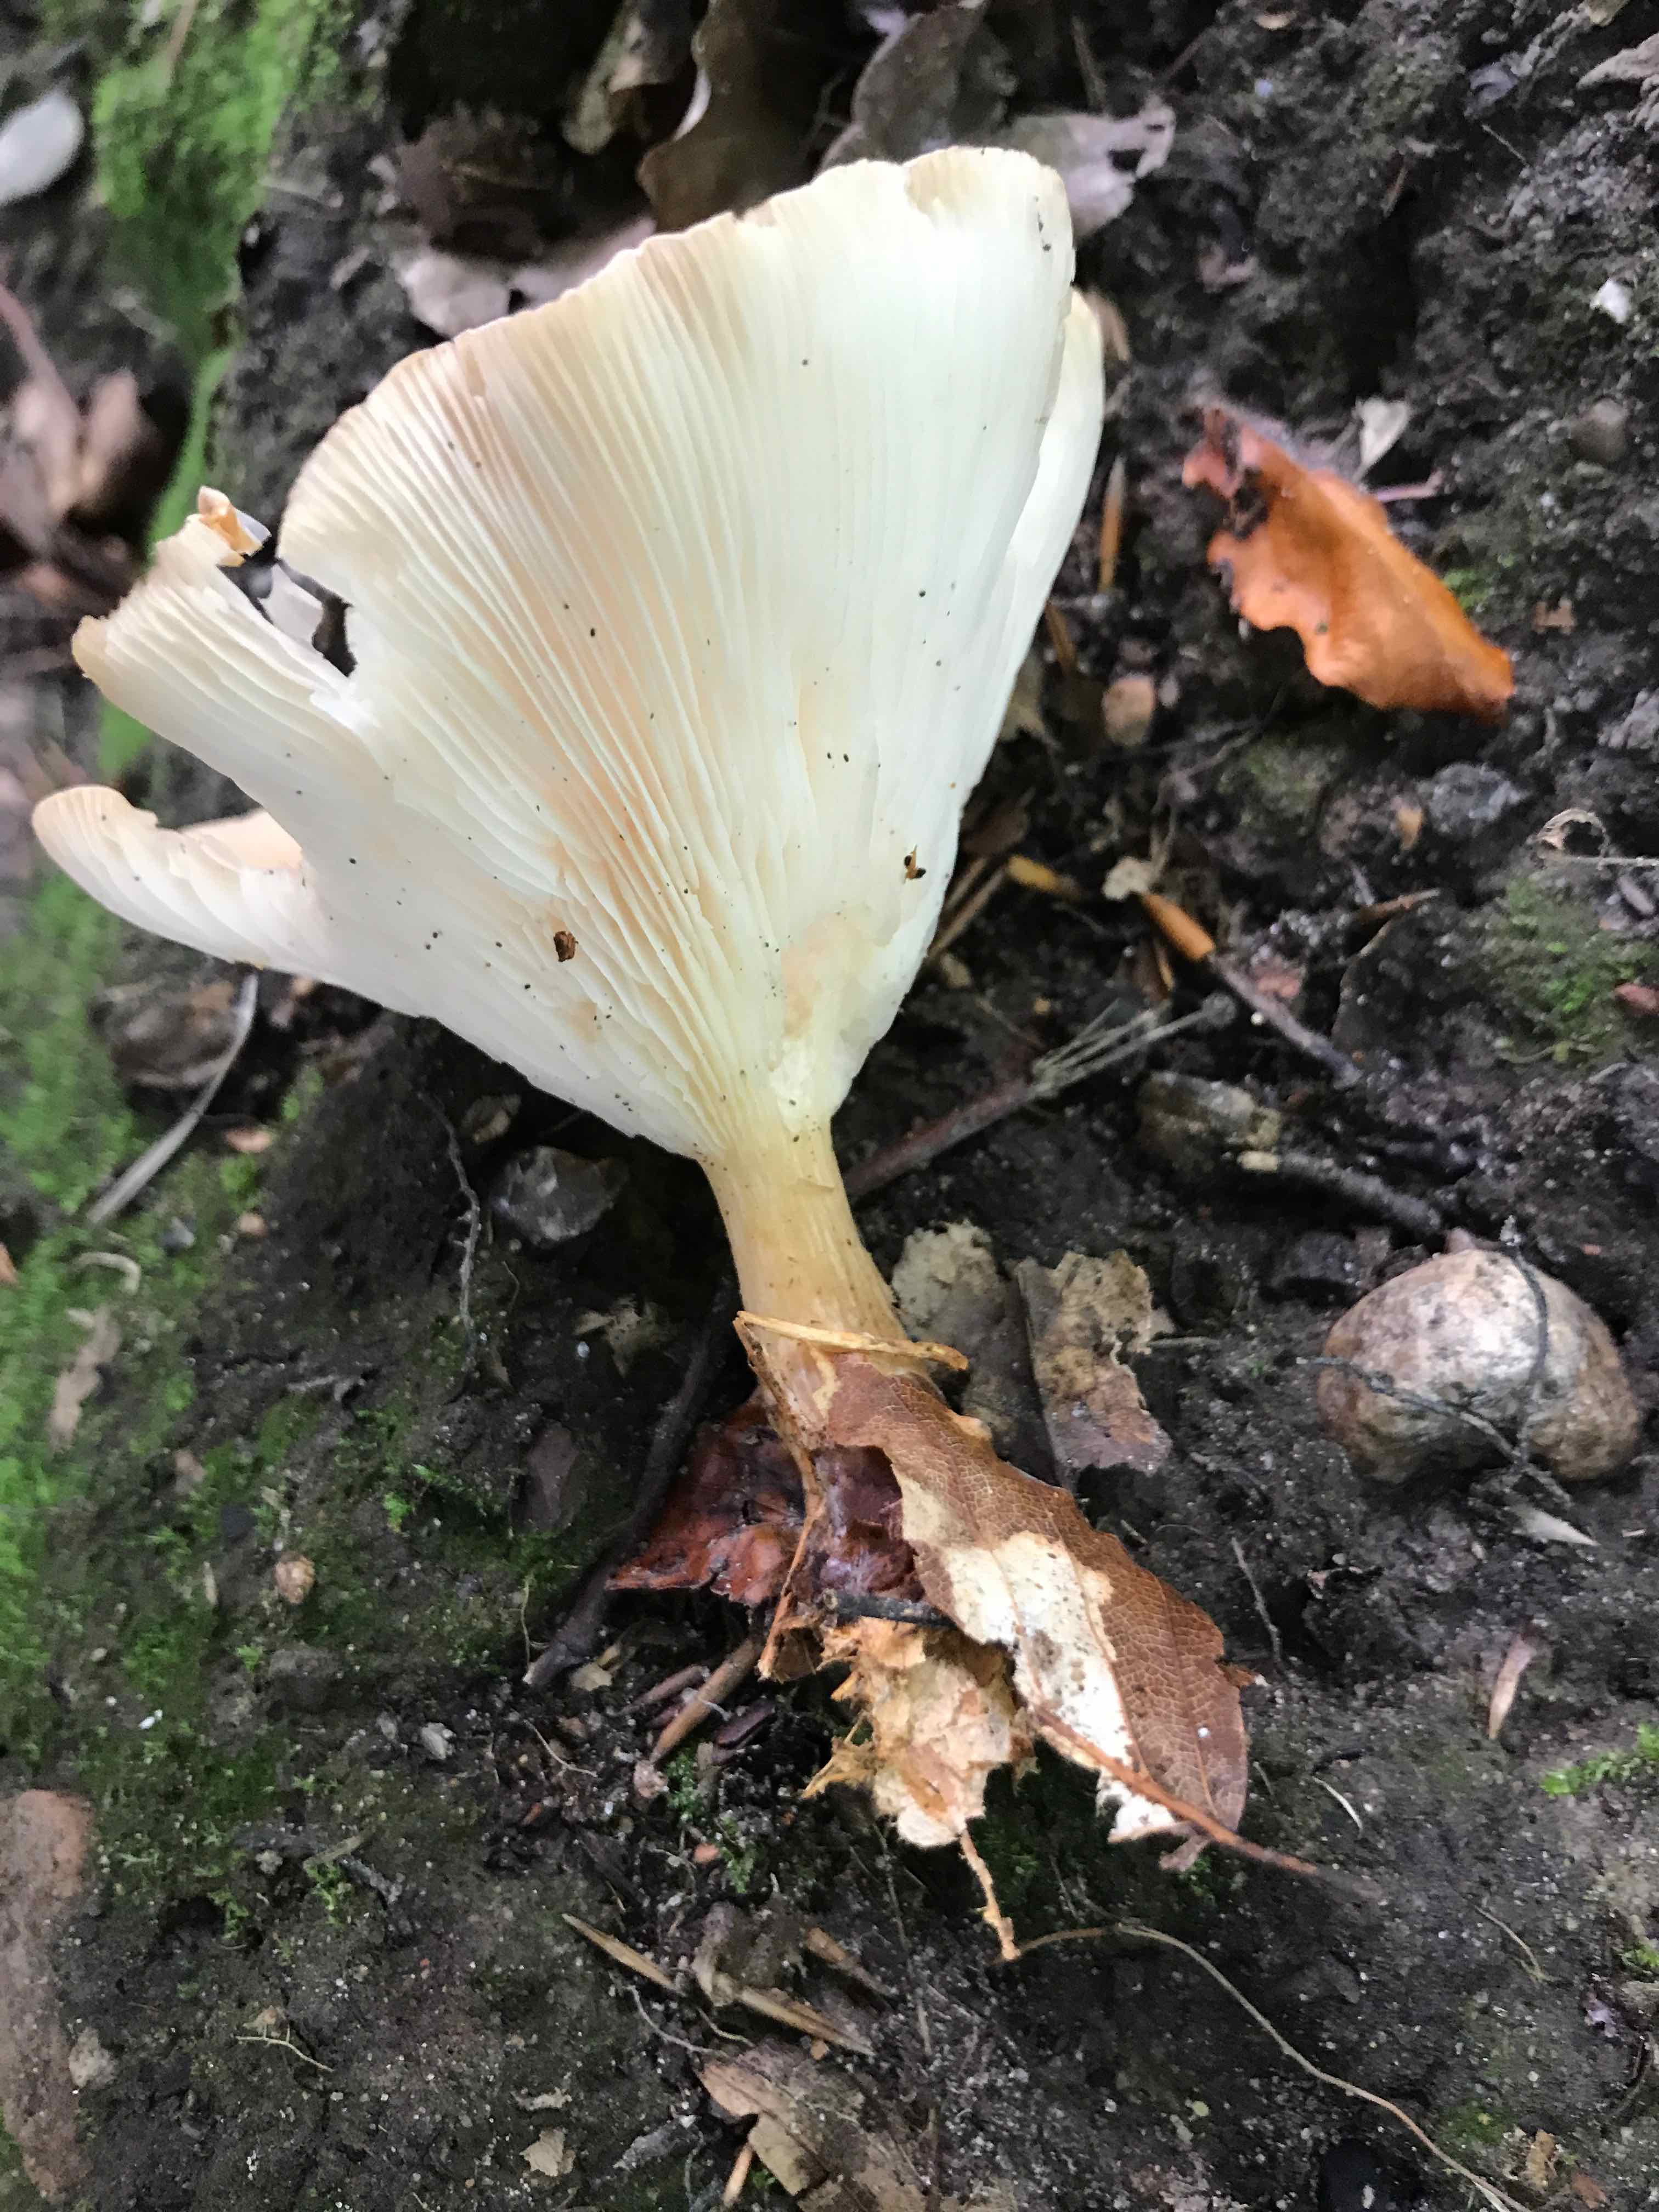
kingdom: Fungi
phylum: Basidiomycota
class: Agaricomycetes
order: Agaricales
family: Tricholomataceae
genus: Infundibulicybe
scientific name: Infundibulicybe gibba
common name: almindelig tragthat
